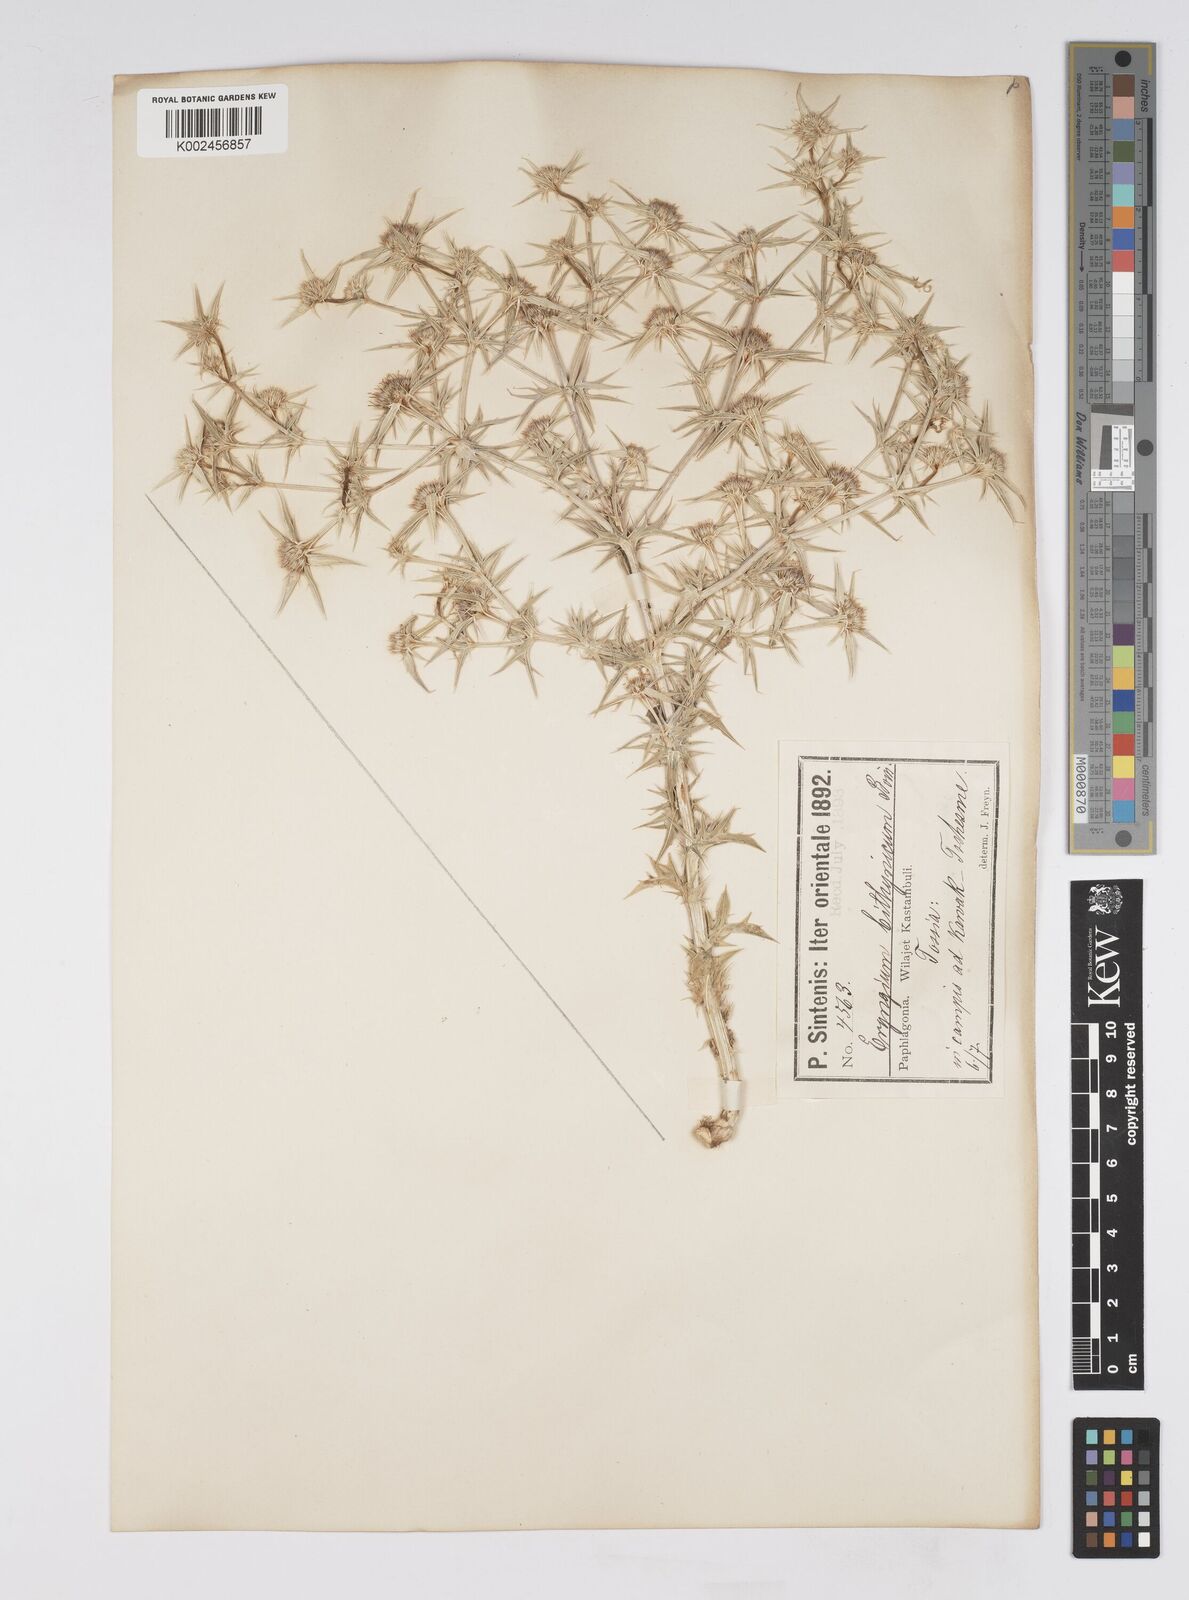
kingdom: Plantae
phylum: Tracheophyta
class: Magnoliopsida
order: Apiales
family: Apiaceae
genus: Eryngium
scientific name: Eryngium bithynicum
